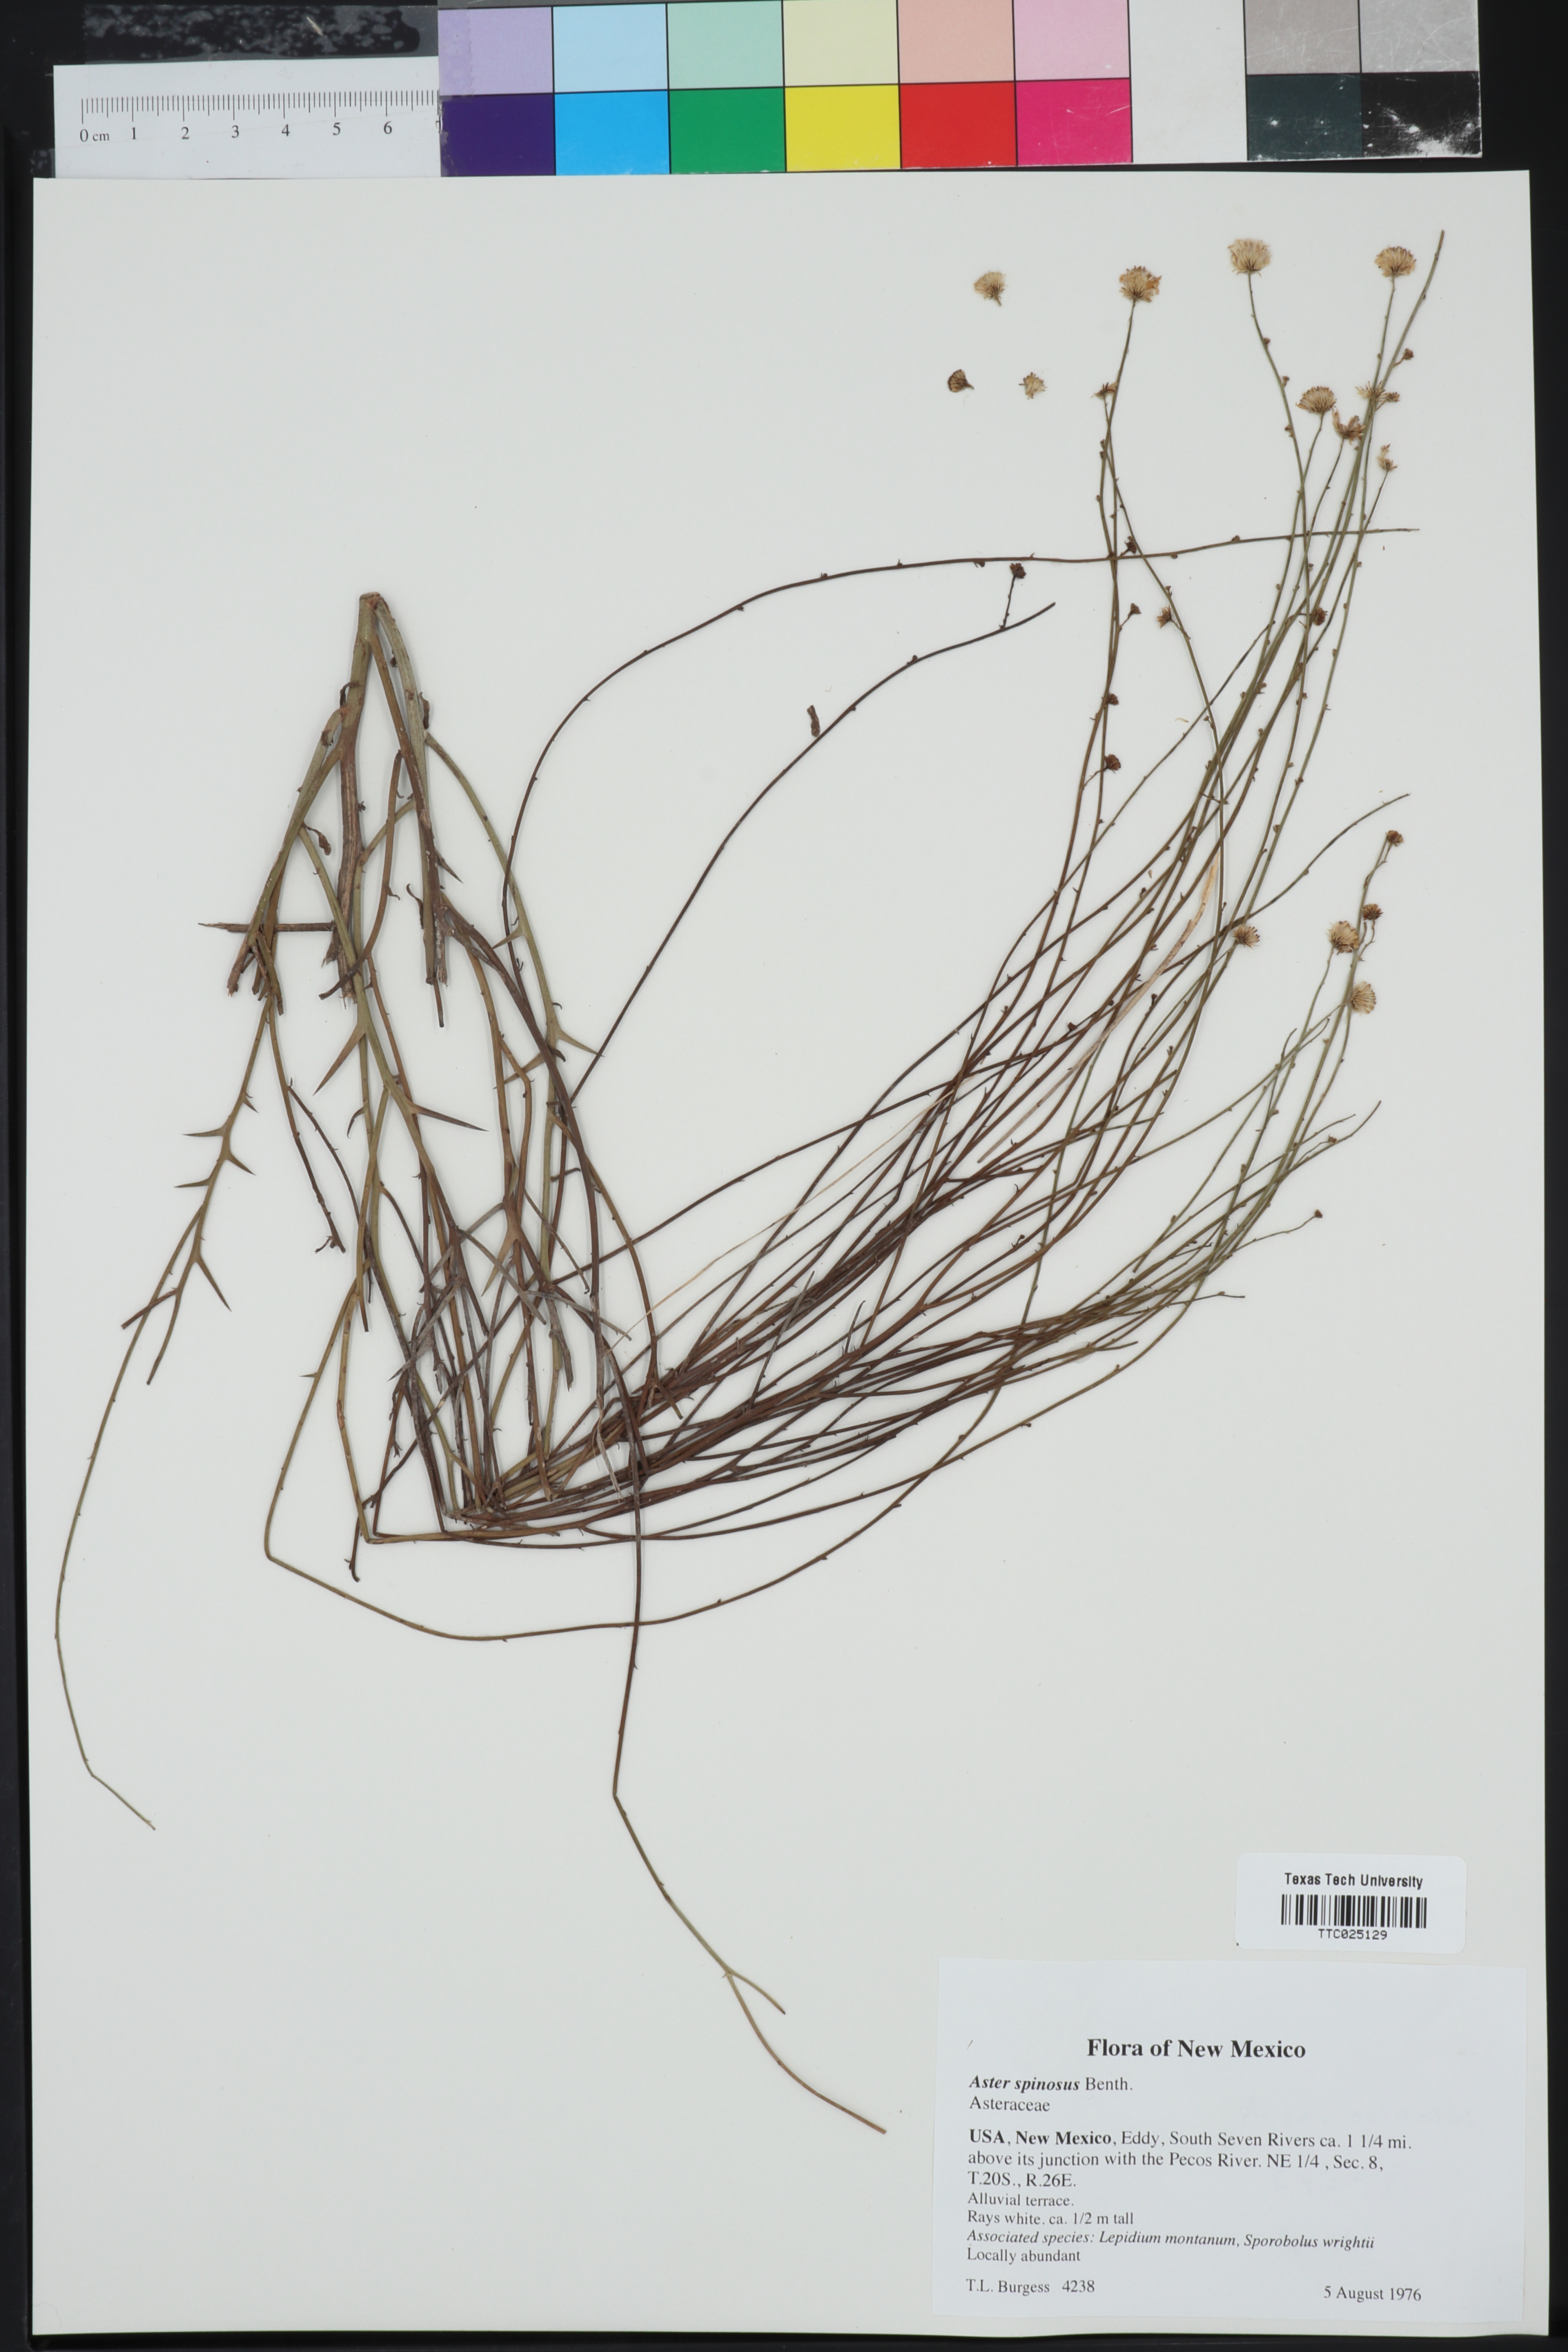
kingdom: Plantae
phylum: Tracheophyta
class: Magnoliopsida
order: Asterales
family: Asteraceae
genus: Chloracantha
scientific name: Chloracantha spinosa
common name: Mexican devilweed
